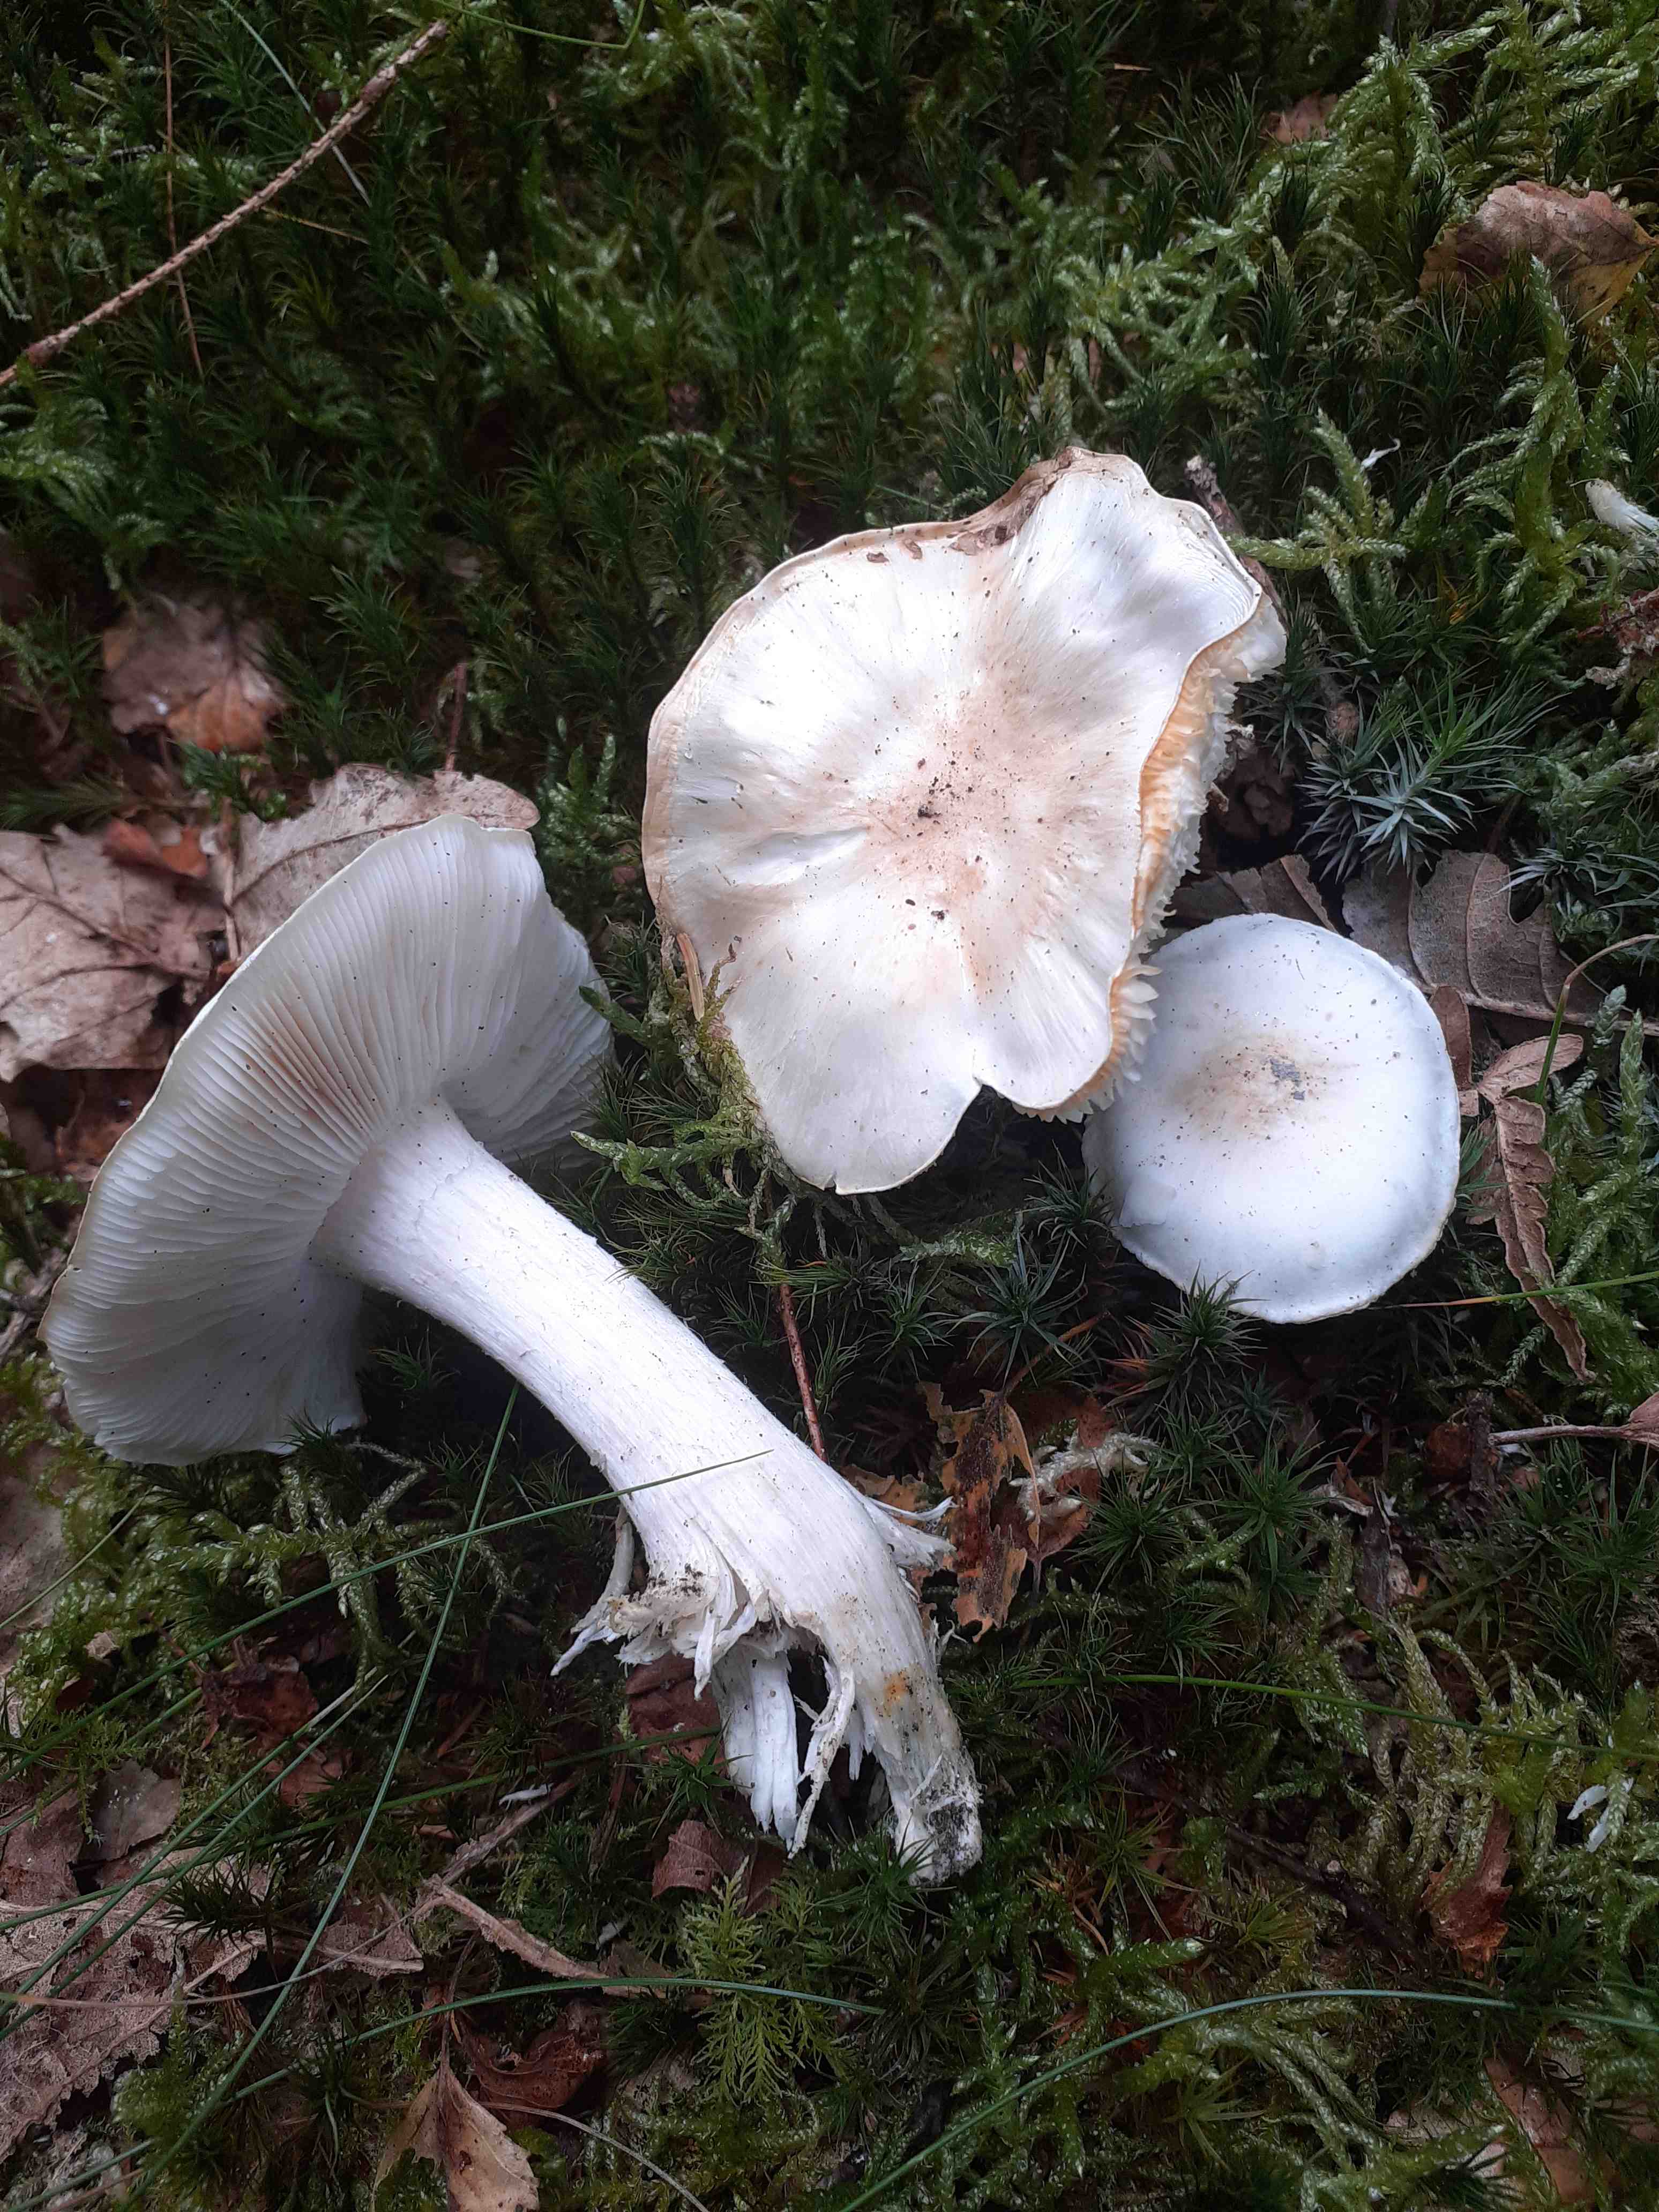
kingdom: Fungi
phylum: Basidiomycota
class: Agaricomycetes
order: Agaricales
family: Tricholomataceae
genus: Tricholoma
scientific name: Tricholoma columbetta
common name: silke-ridderhat
